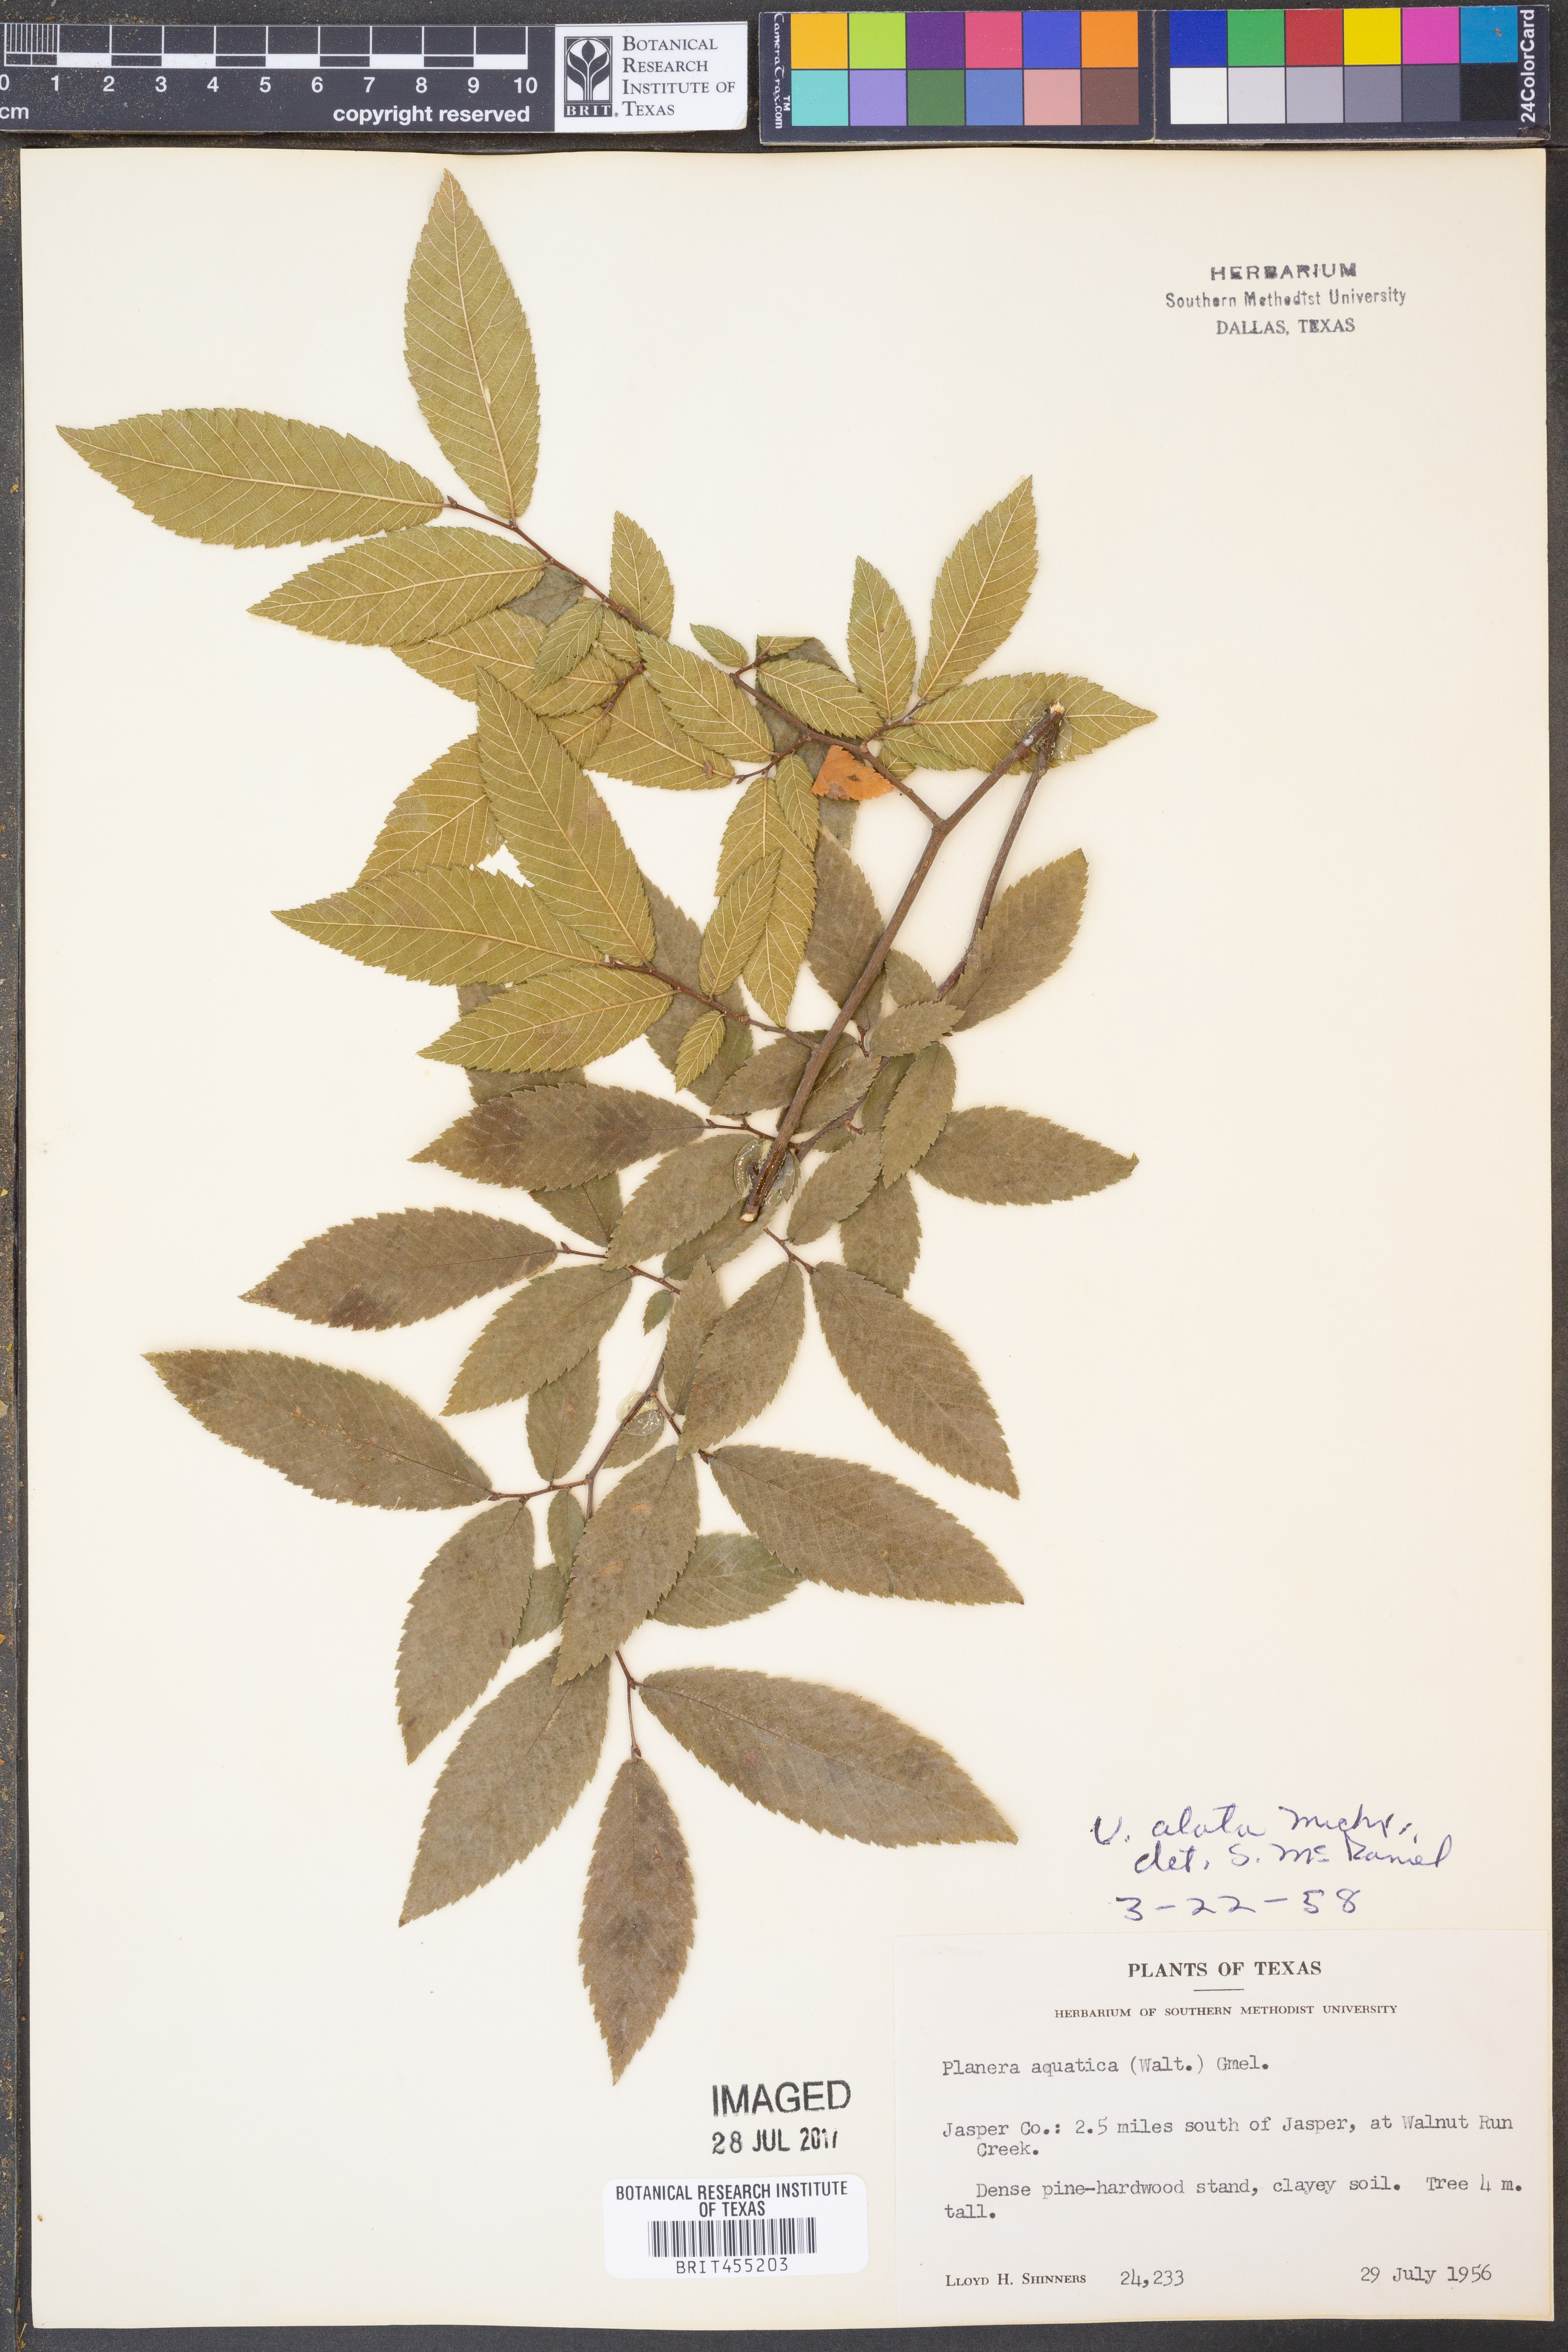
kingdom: Plantae
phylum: Tracheophyta
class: Magnoliopsida
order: Rosales
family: Ulmaceae
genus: Ulmus
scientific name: Ulmus alata
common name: Winged elm
